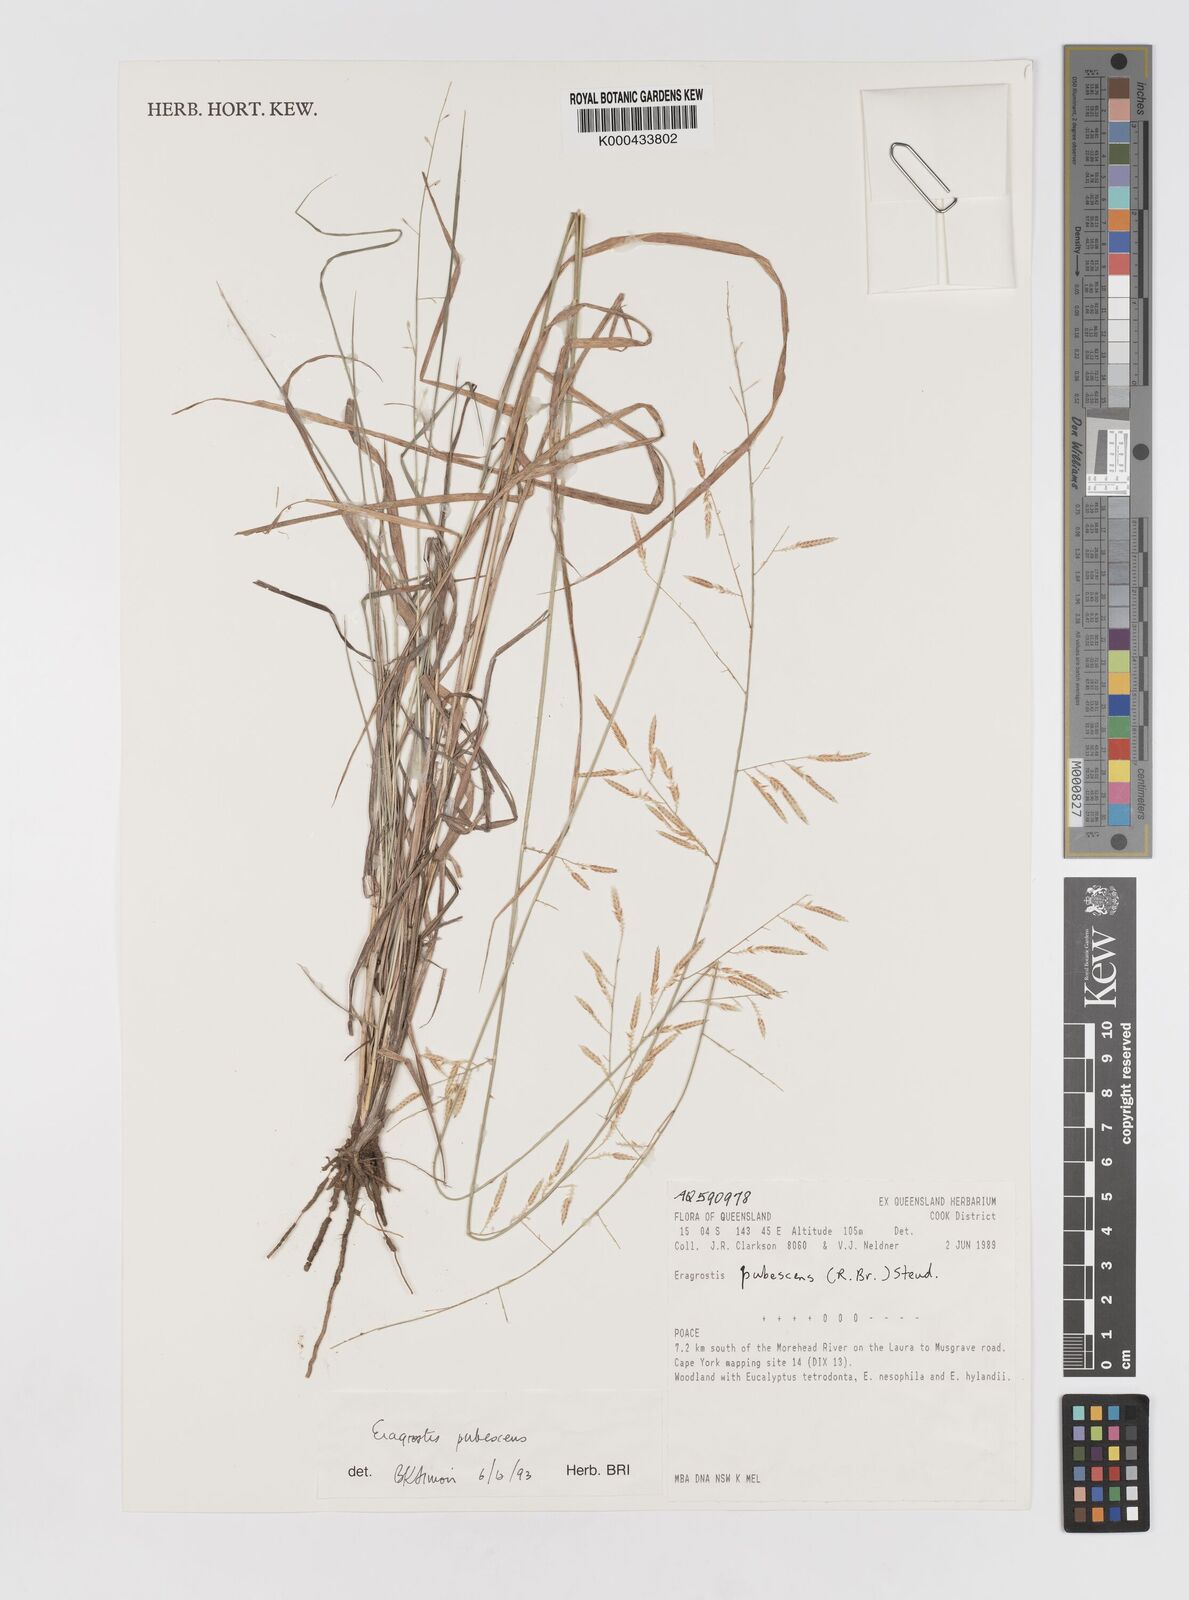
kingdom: Plantae
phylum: Tracheophyta
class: Liliopsida
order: Poales
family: Poaceae
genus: Eragrostis
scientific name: Eragrostis pubescens
